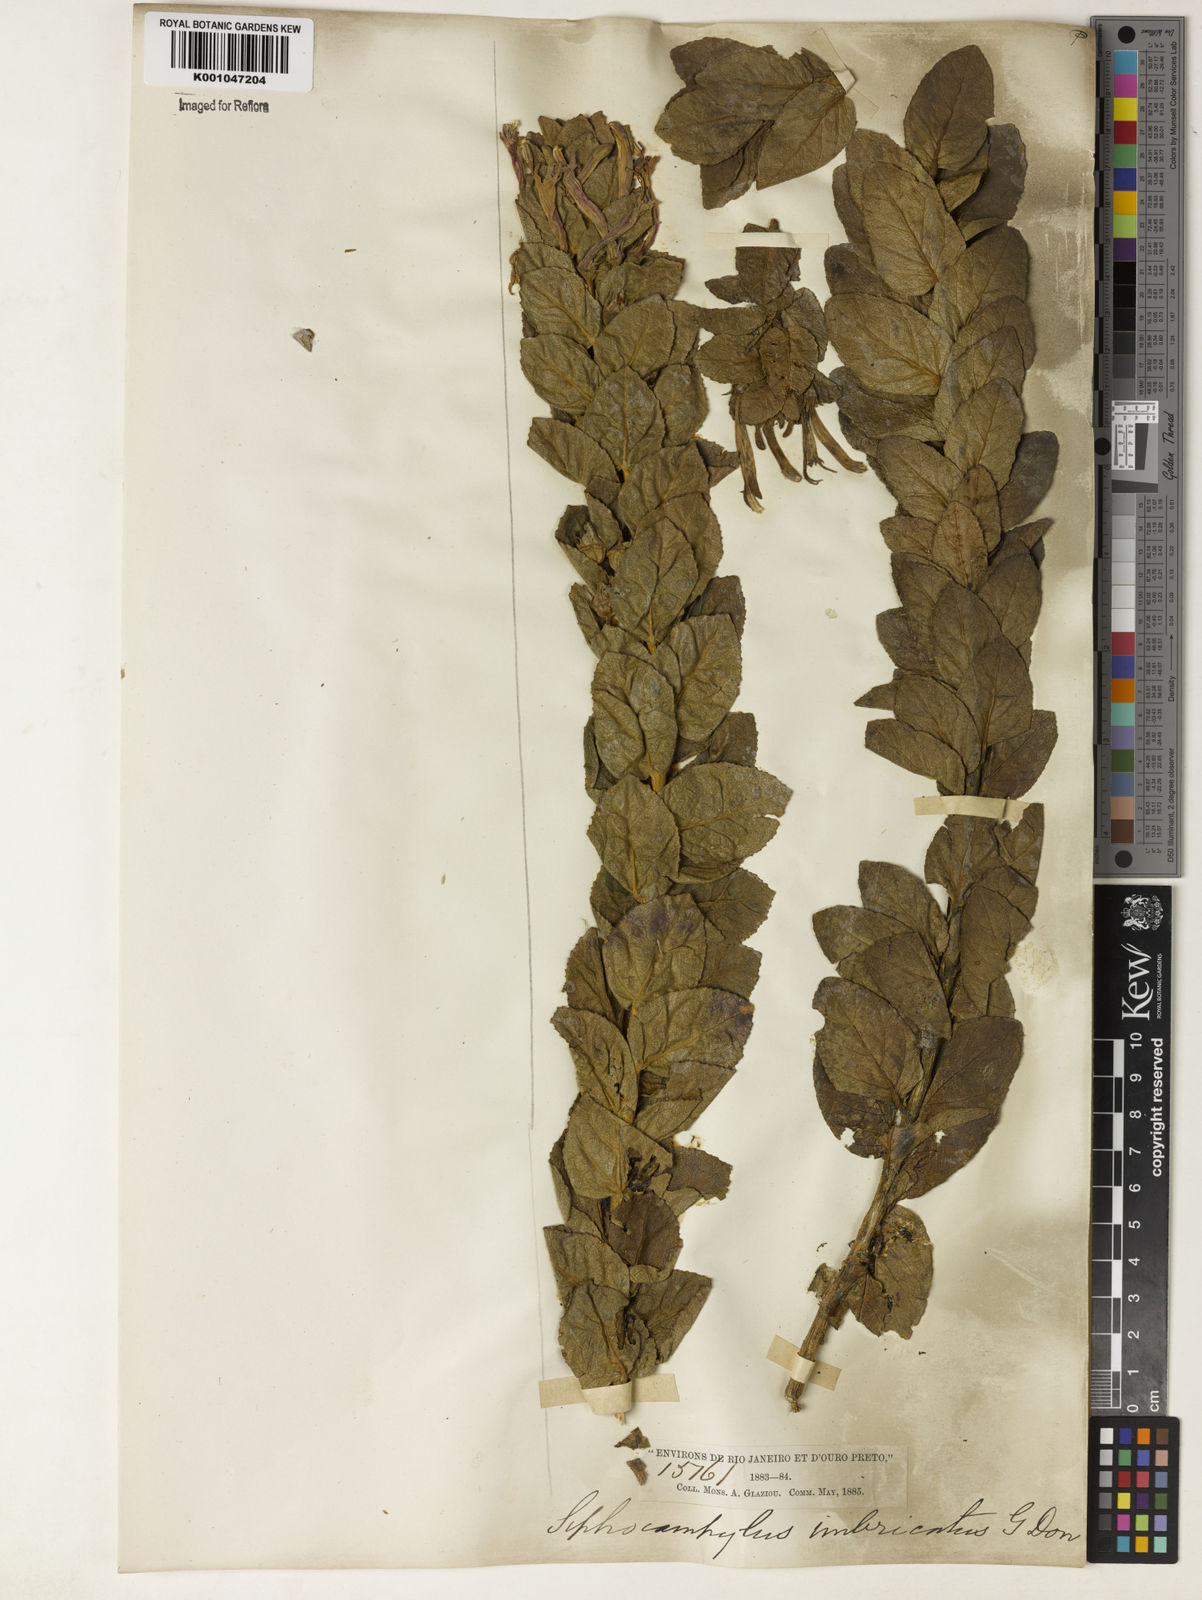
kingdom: Plantae
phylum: Tracheophyta
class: Magnoliopsida
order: Asterales
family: Campanulaceae
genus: Siphocampylus
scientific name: Siphocampylus imbricatus
